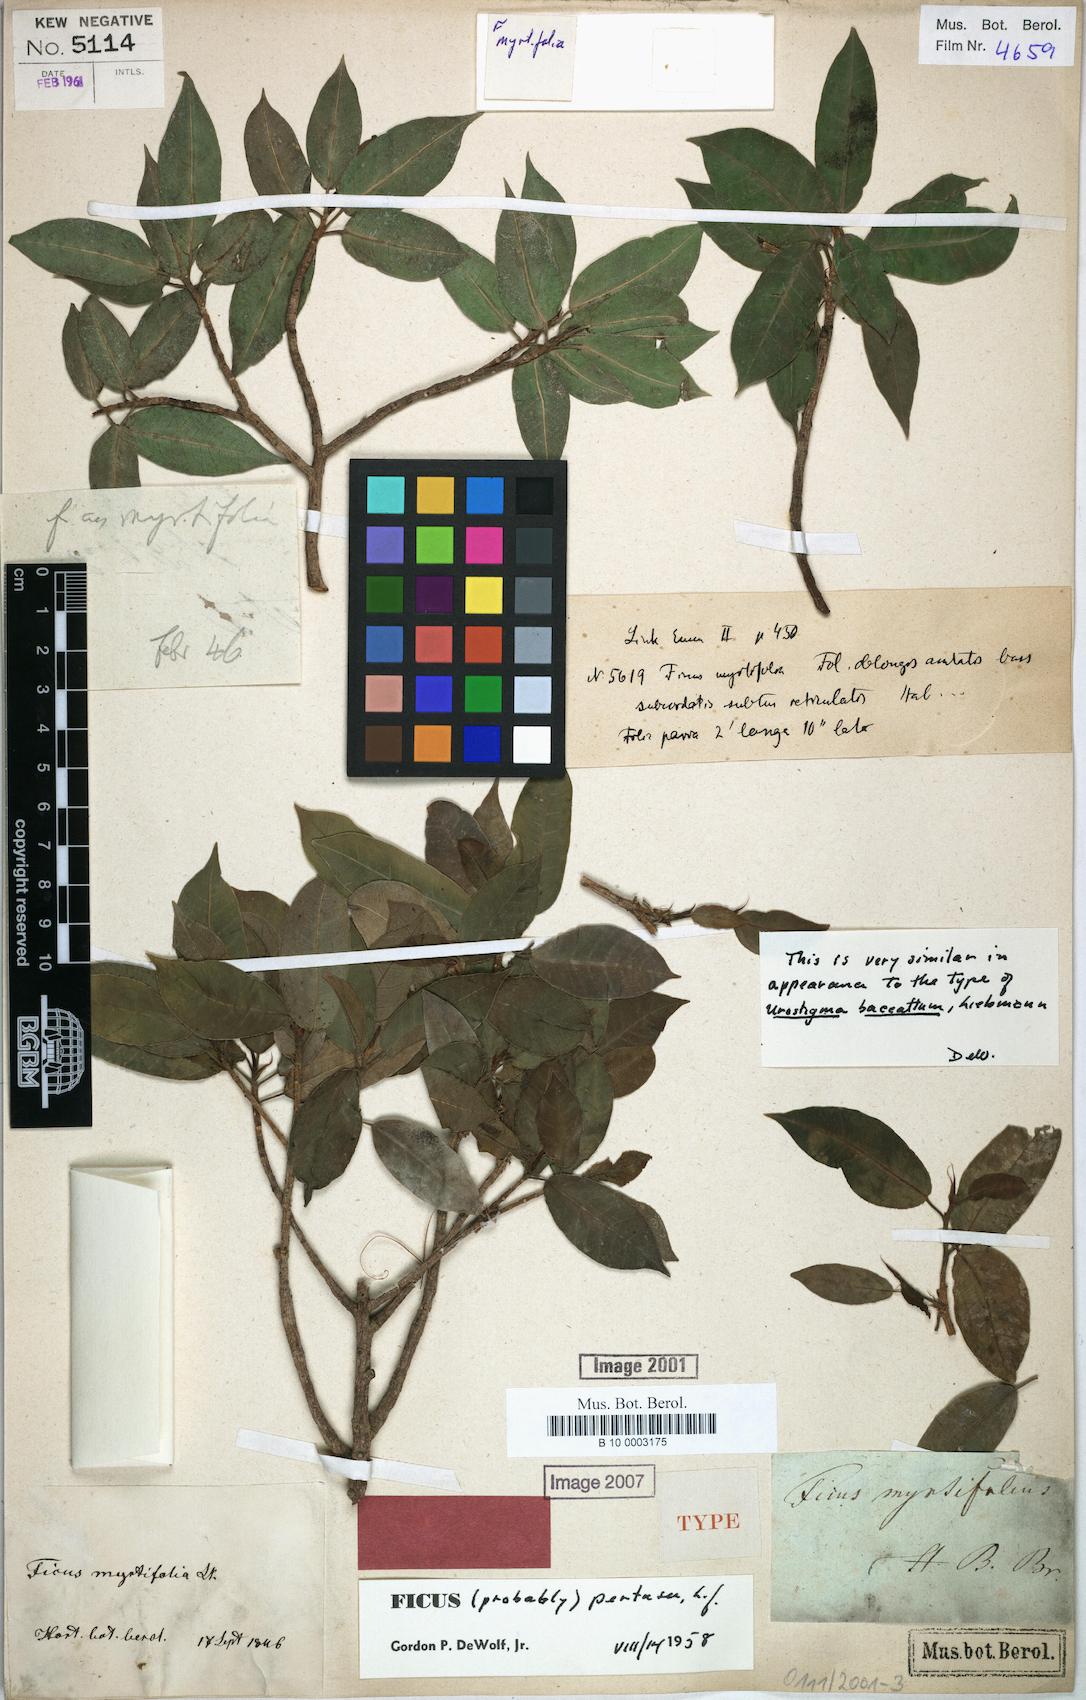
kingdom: Plantae
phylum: Tracheophyta
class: Magnoliopsida
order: Rosales
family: Moraceae
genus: Ficus
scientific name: Ficus pertusa
